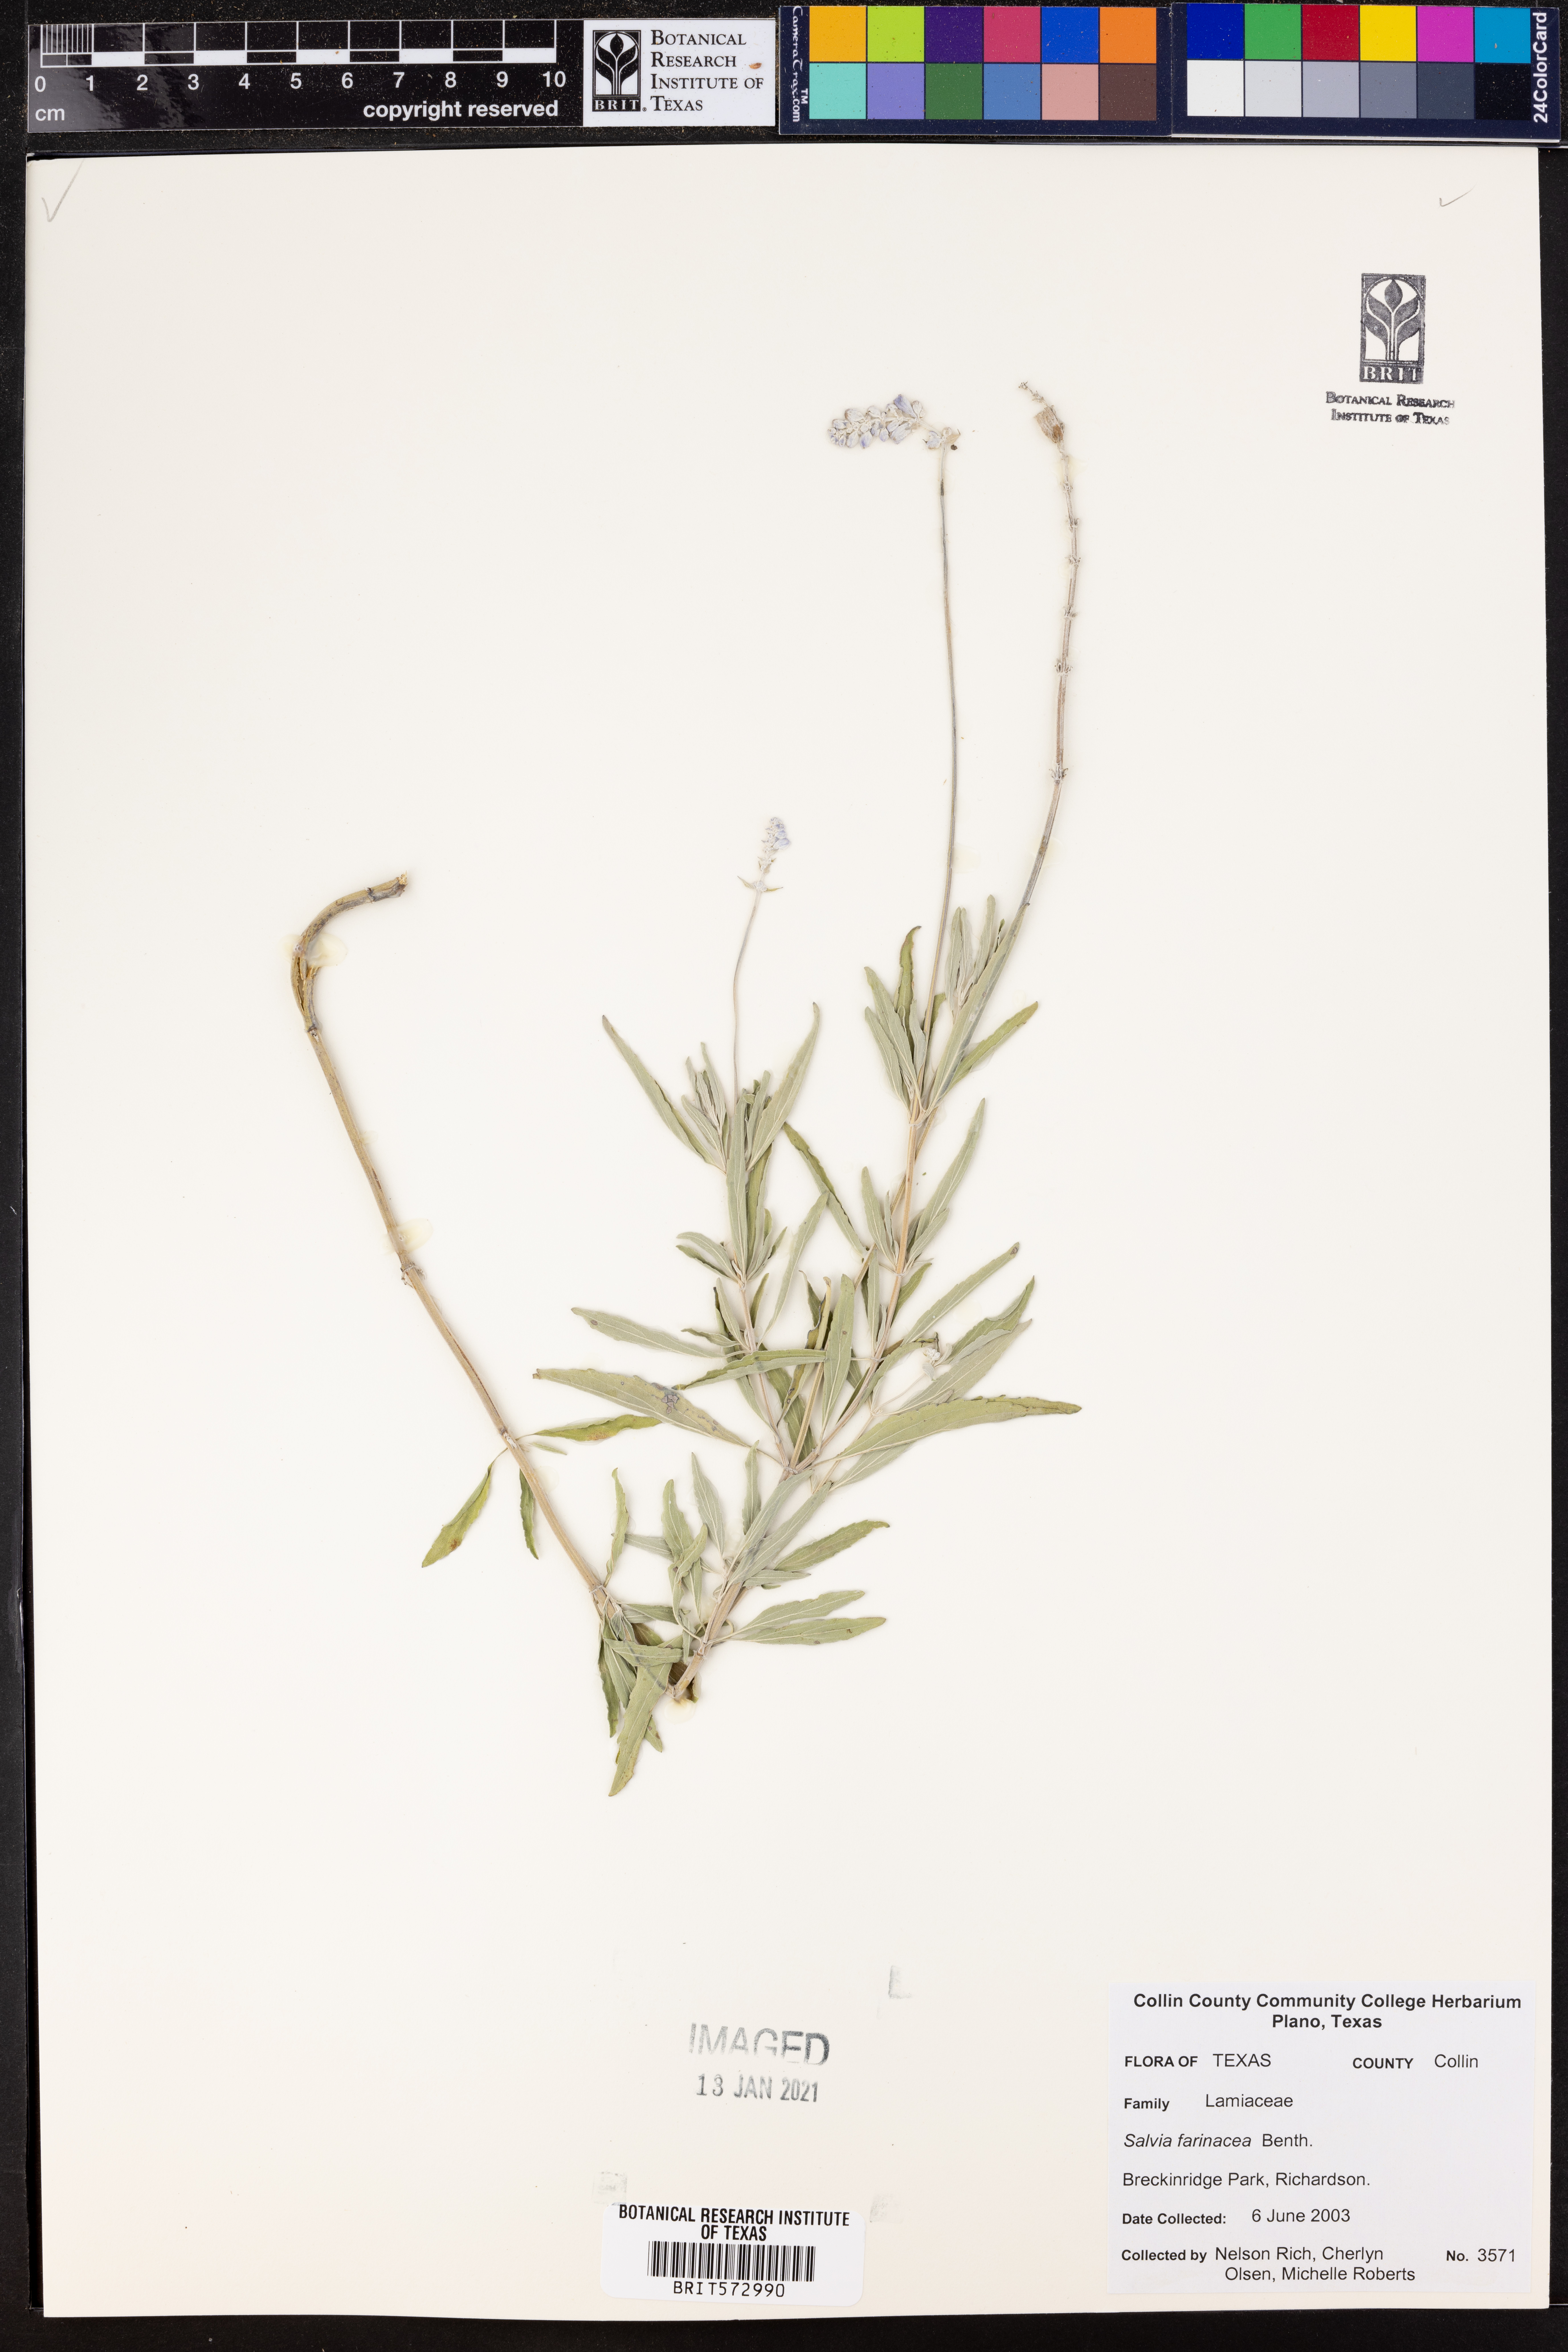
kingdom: Plantae
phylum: Tracheophyta
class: Magnoliopsida
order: Lamiales
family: Lamiaceae
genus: Salvia
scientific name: Salvia farinacea
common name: Mealy sage
